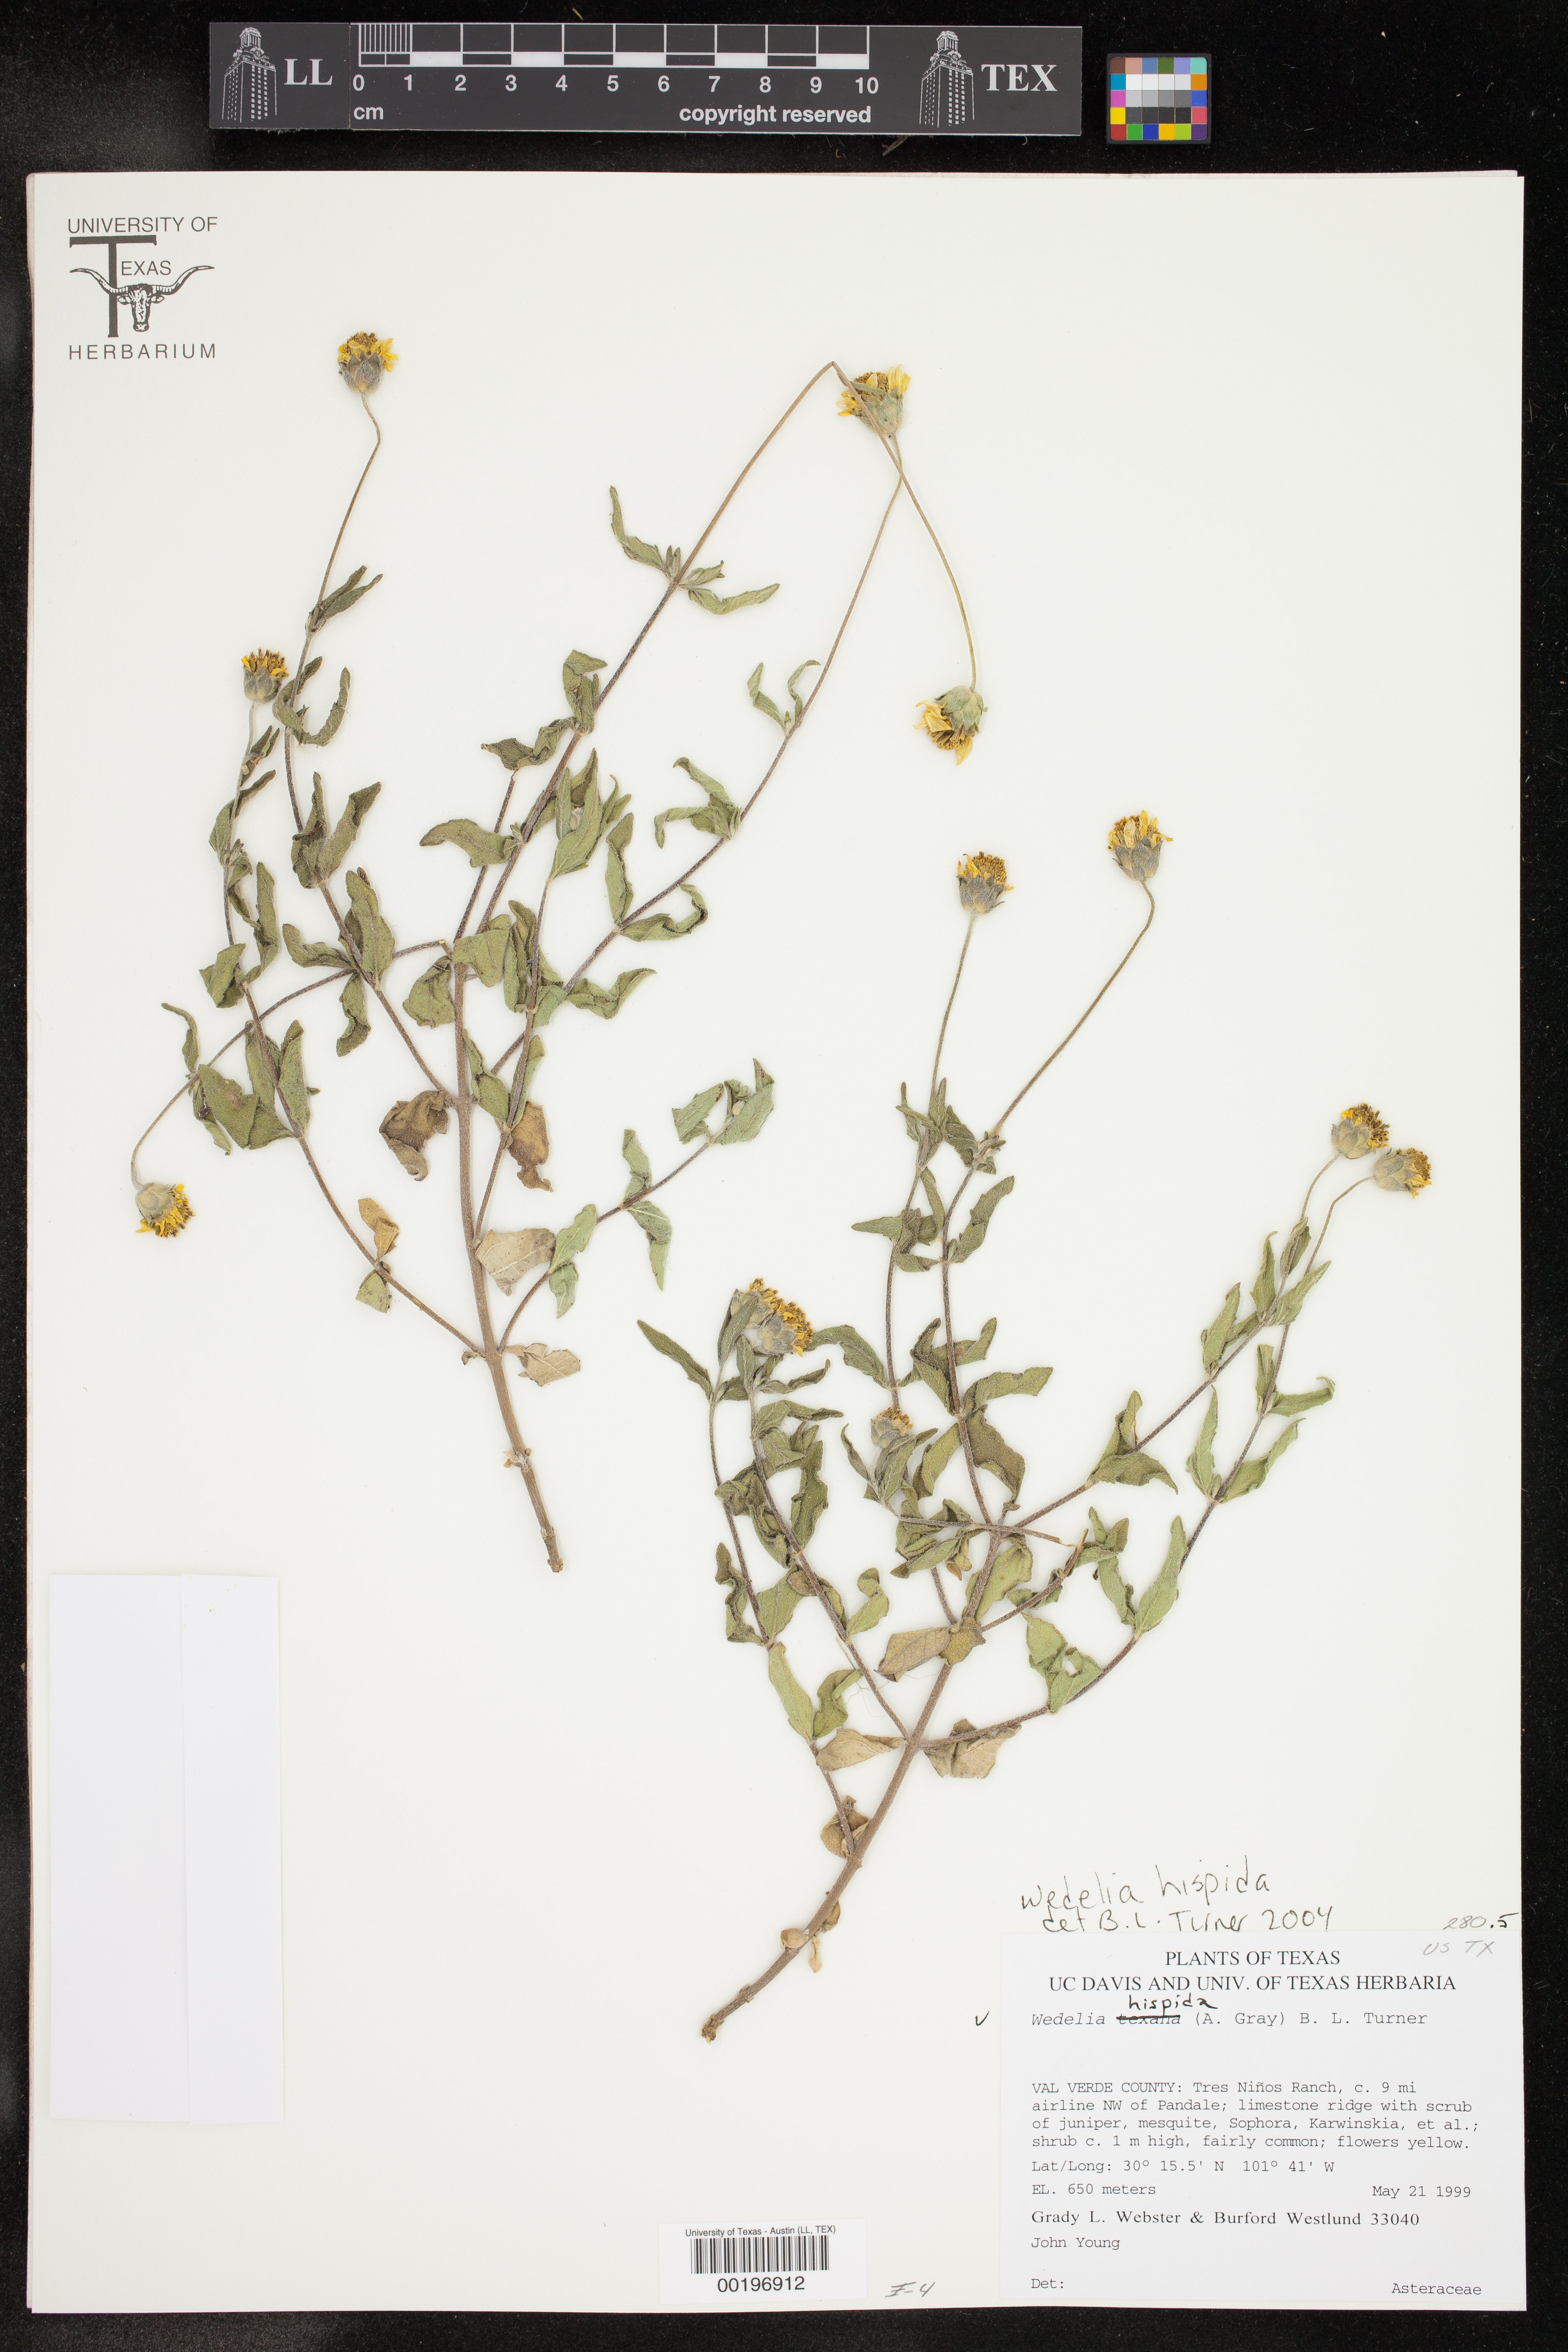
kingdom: Plantae
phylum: Tracheophyta
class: Magnoliopsida
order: Asterales
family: Asteraceae
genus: Wedelia
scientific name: Wedelia acapulcensis
